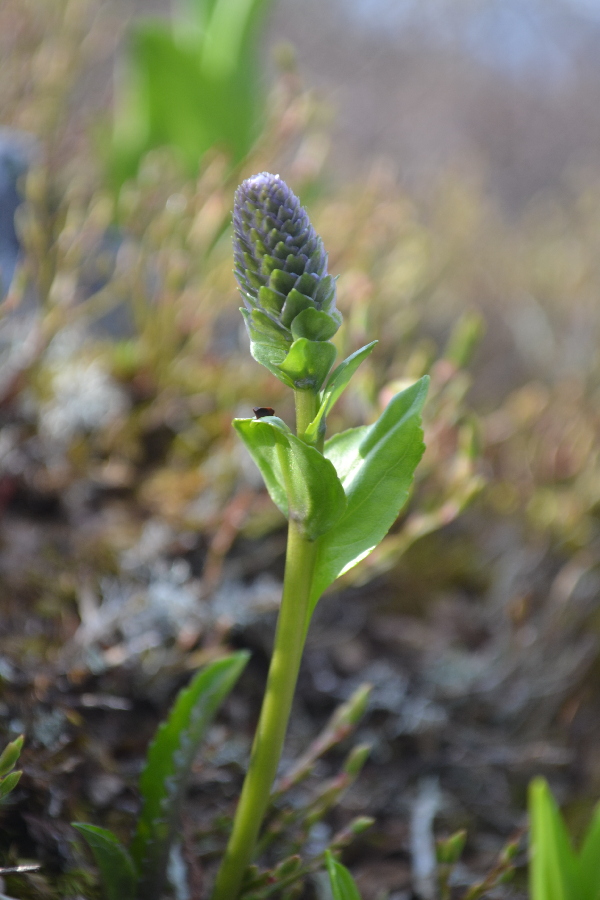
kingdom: Plantae
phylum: Tracheophyta
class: Magnoliopsida
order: Lamiales
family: Plantaginaceae
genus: Lagotis
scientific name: Lagotis glauca
